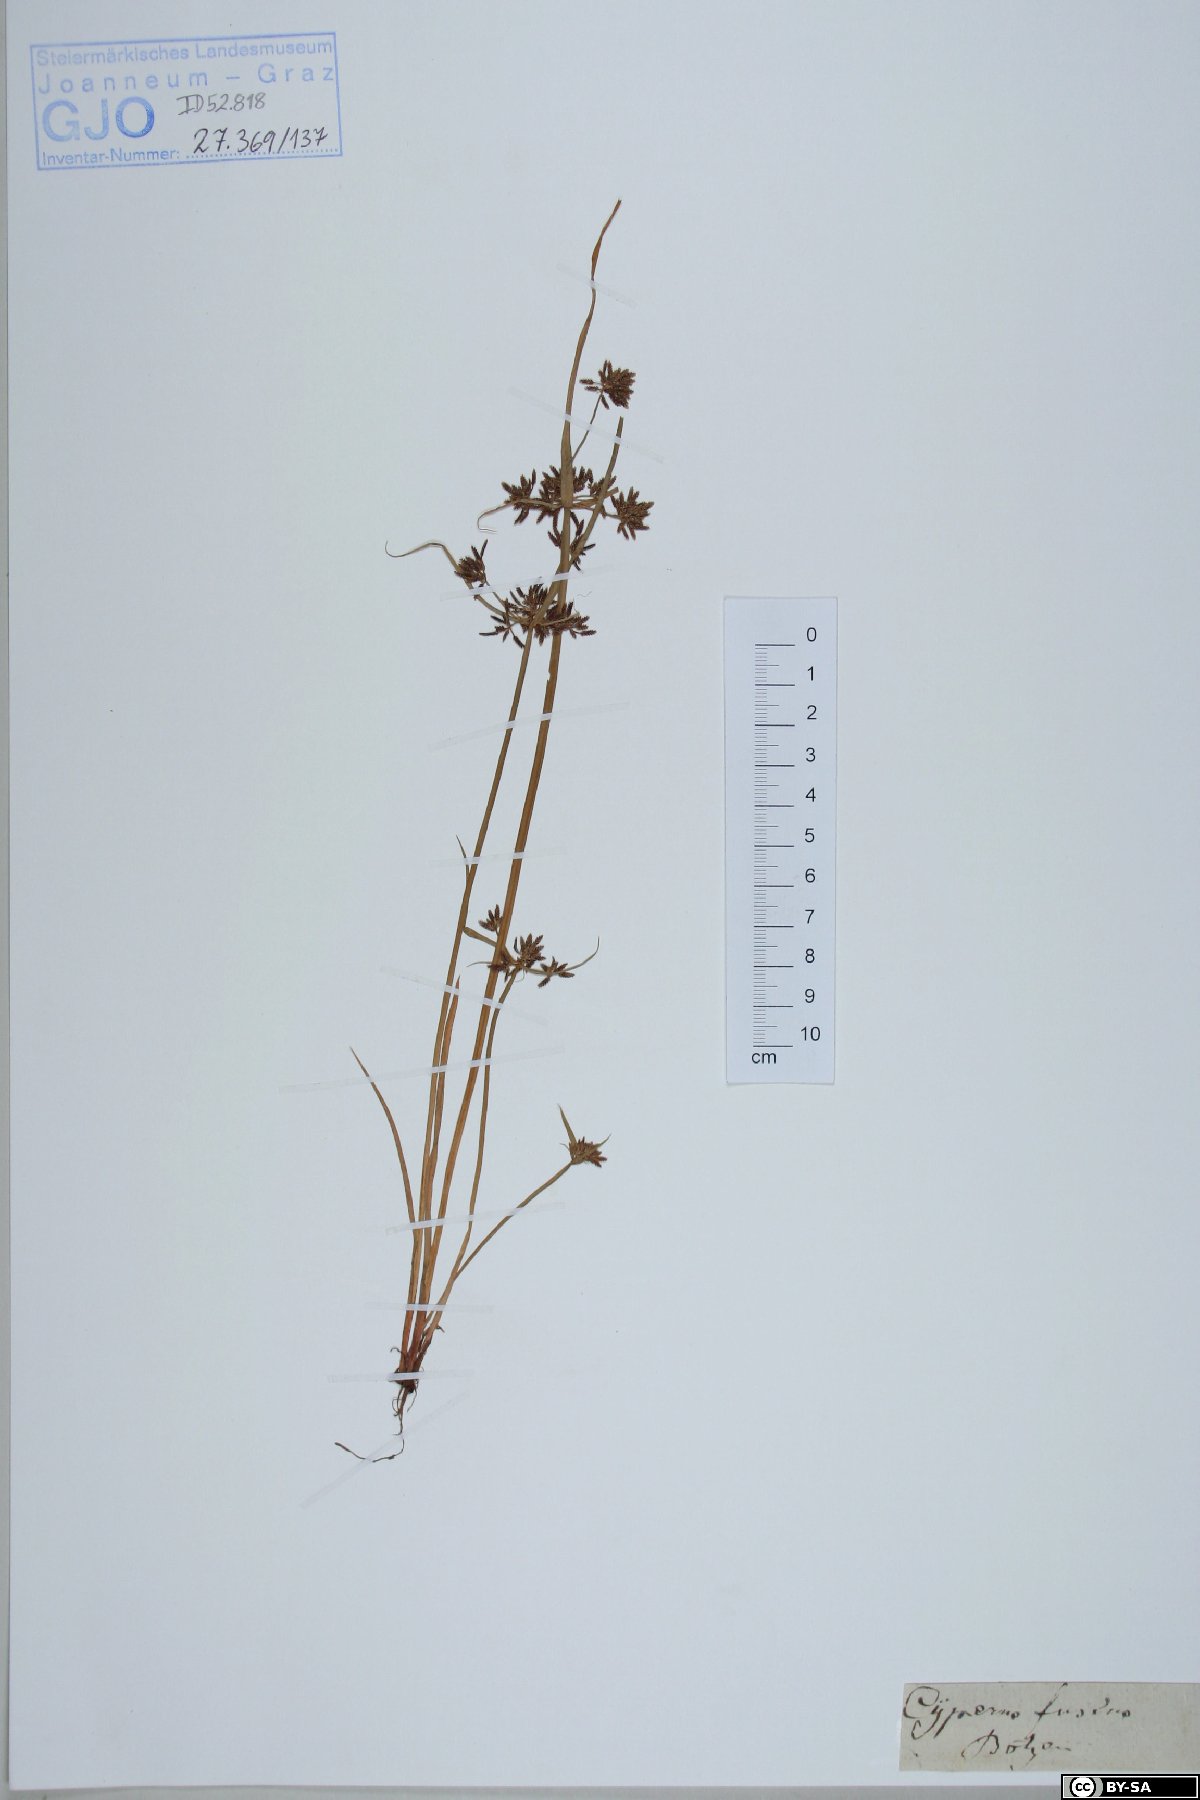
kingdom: Plantae
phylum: Tracheophyta
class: Liliopsida
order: Poales
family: Cyperaceae
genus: Cyperus
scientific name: Cyperus fuscus
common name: Brown galingale
